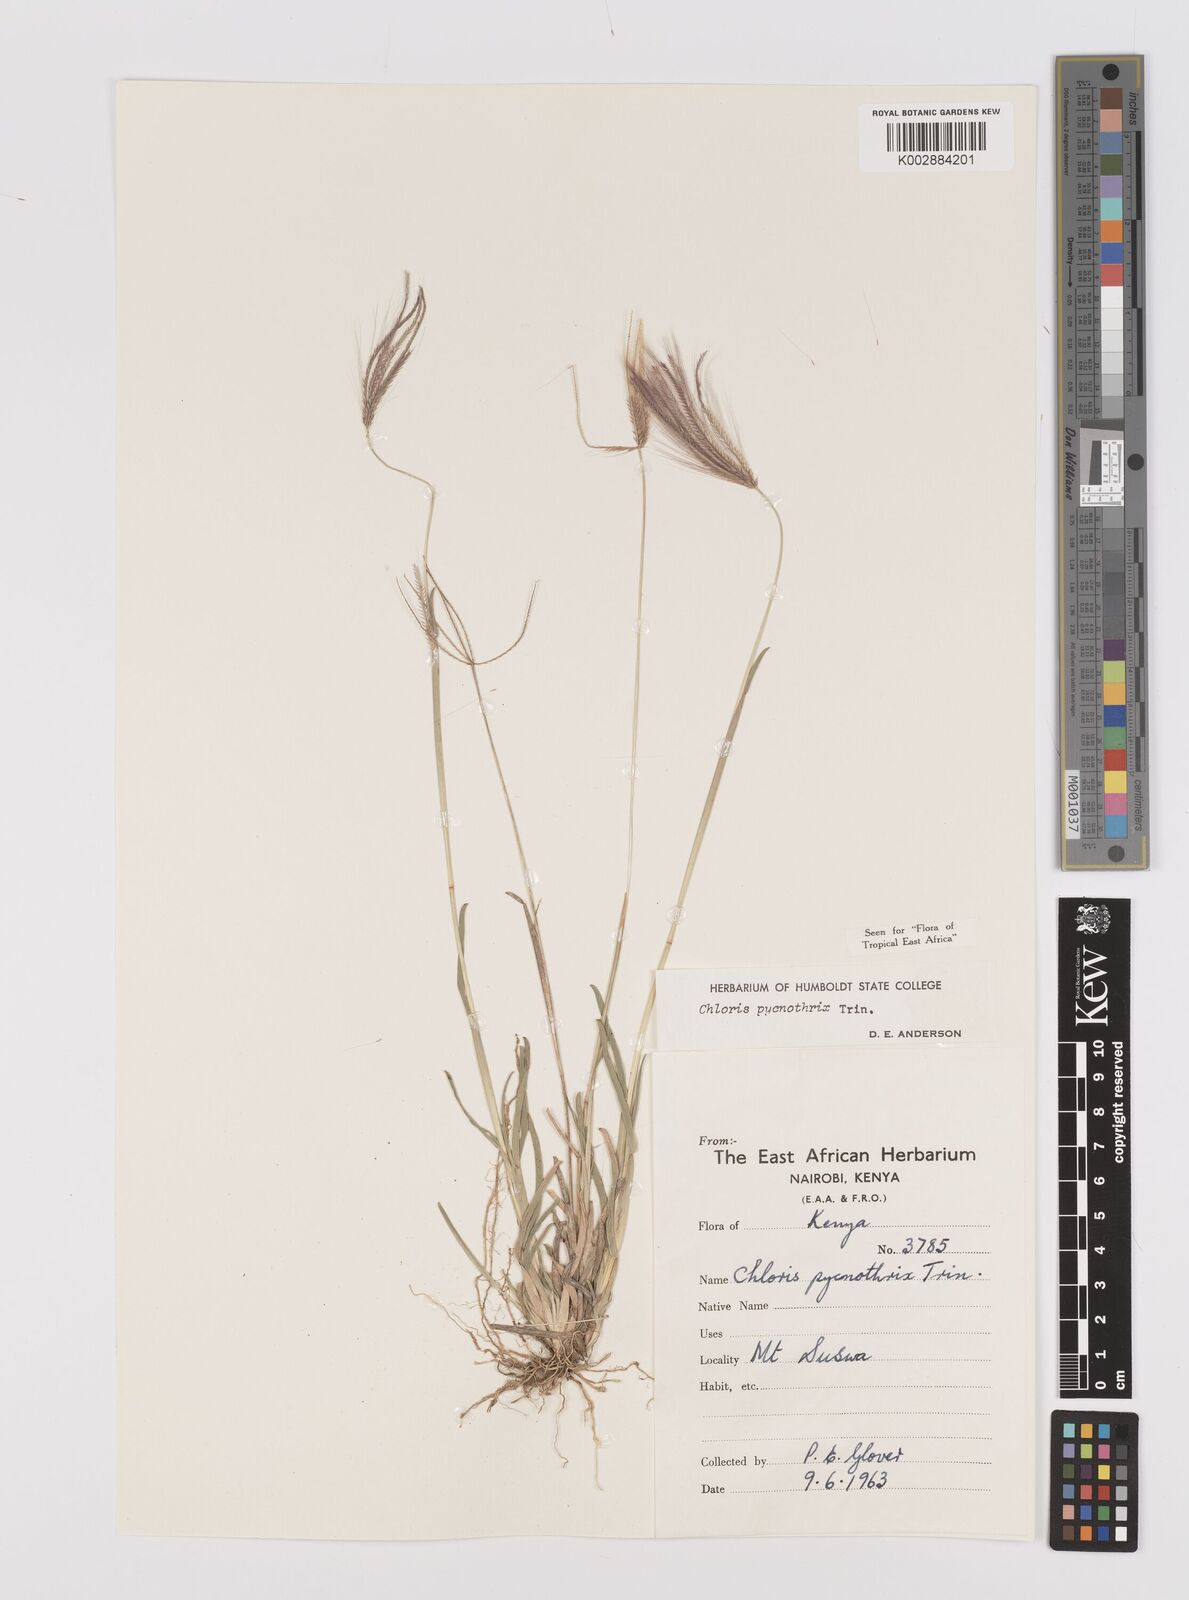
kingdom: Plantae
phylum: Tracheophyta
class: Liliopsida
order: Poales
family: Poaceae
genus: Chloris
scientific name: Chloris pycnothrix
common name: Spiderweb chloris
